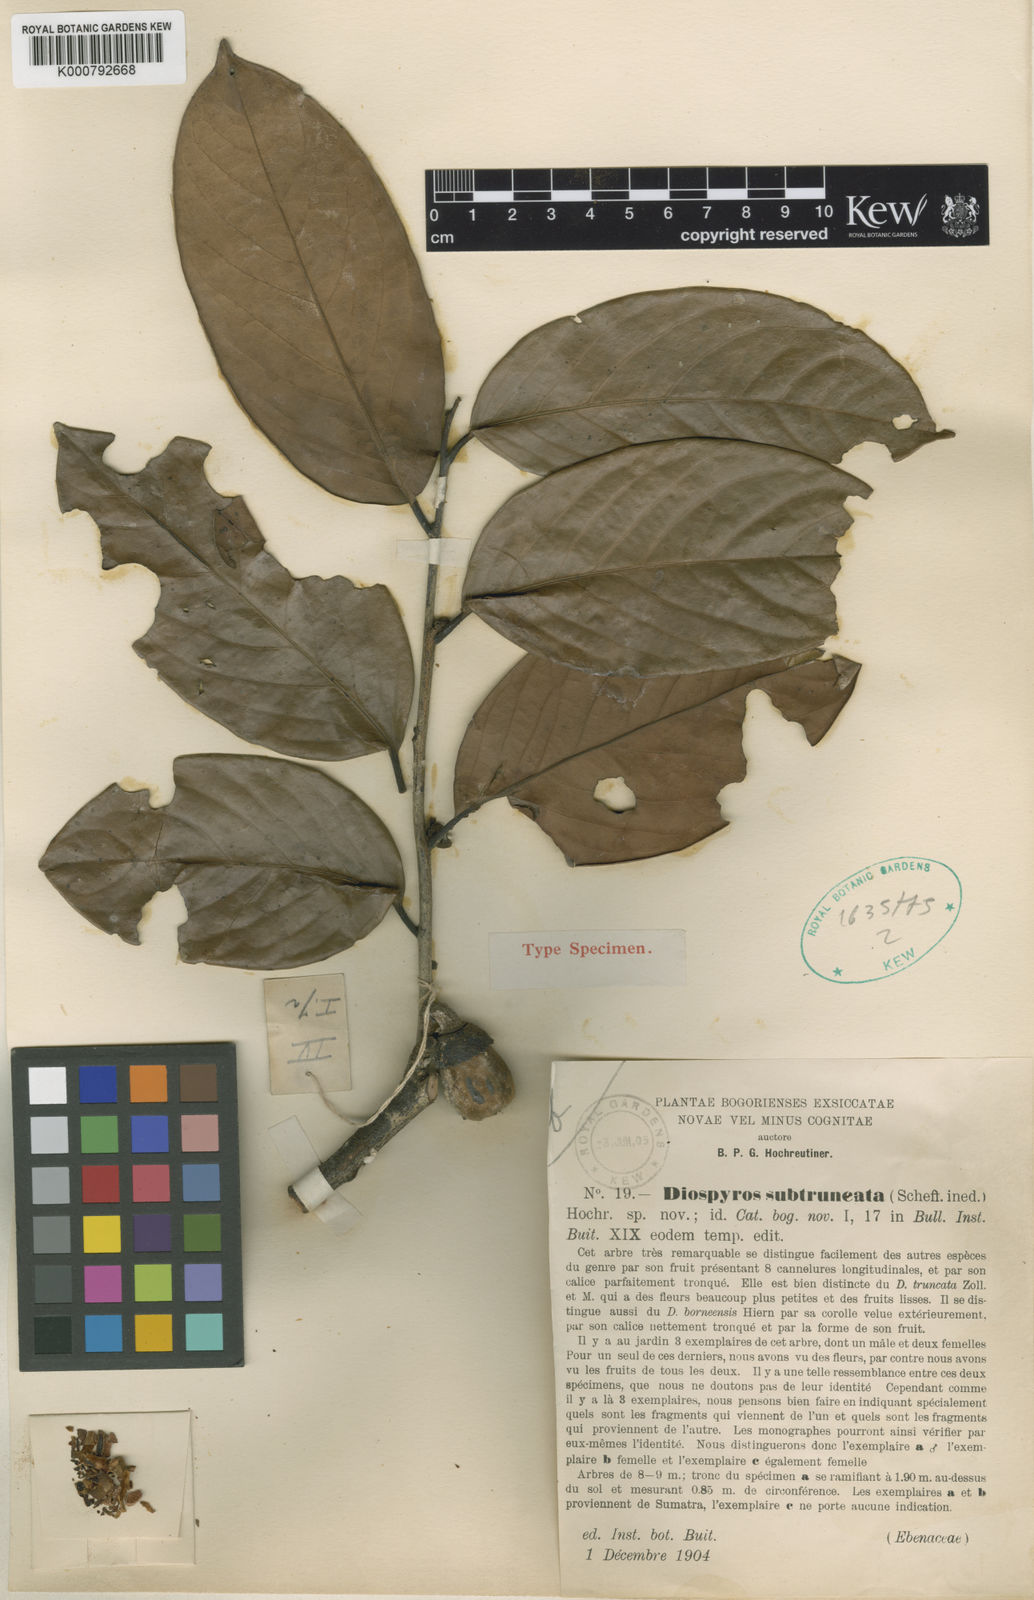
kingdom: Plantae
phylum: Tracheophyta
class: Magnoliopsida
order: Ericales
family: Ebenaceae
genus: Diospyros
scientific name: Diospyros subtruncata
